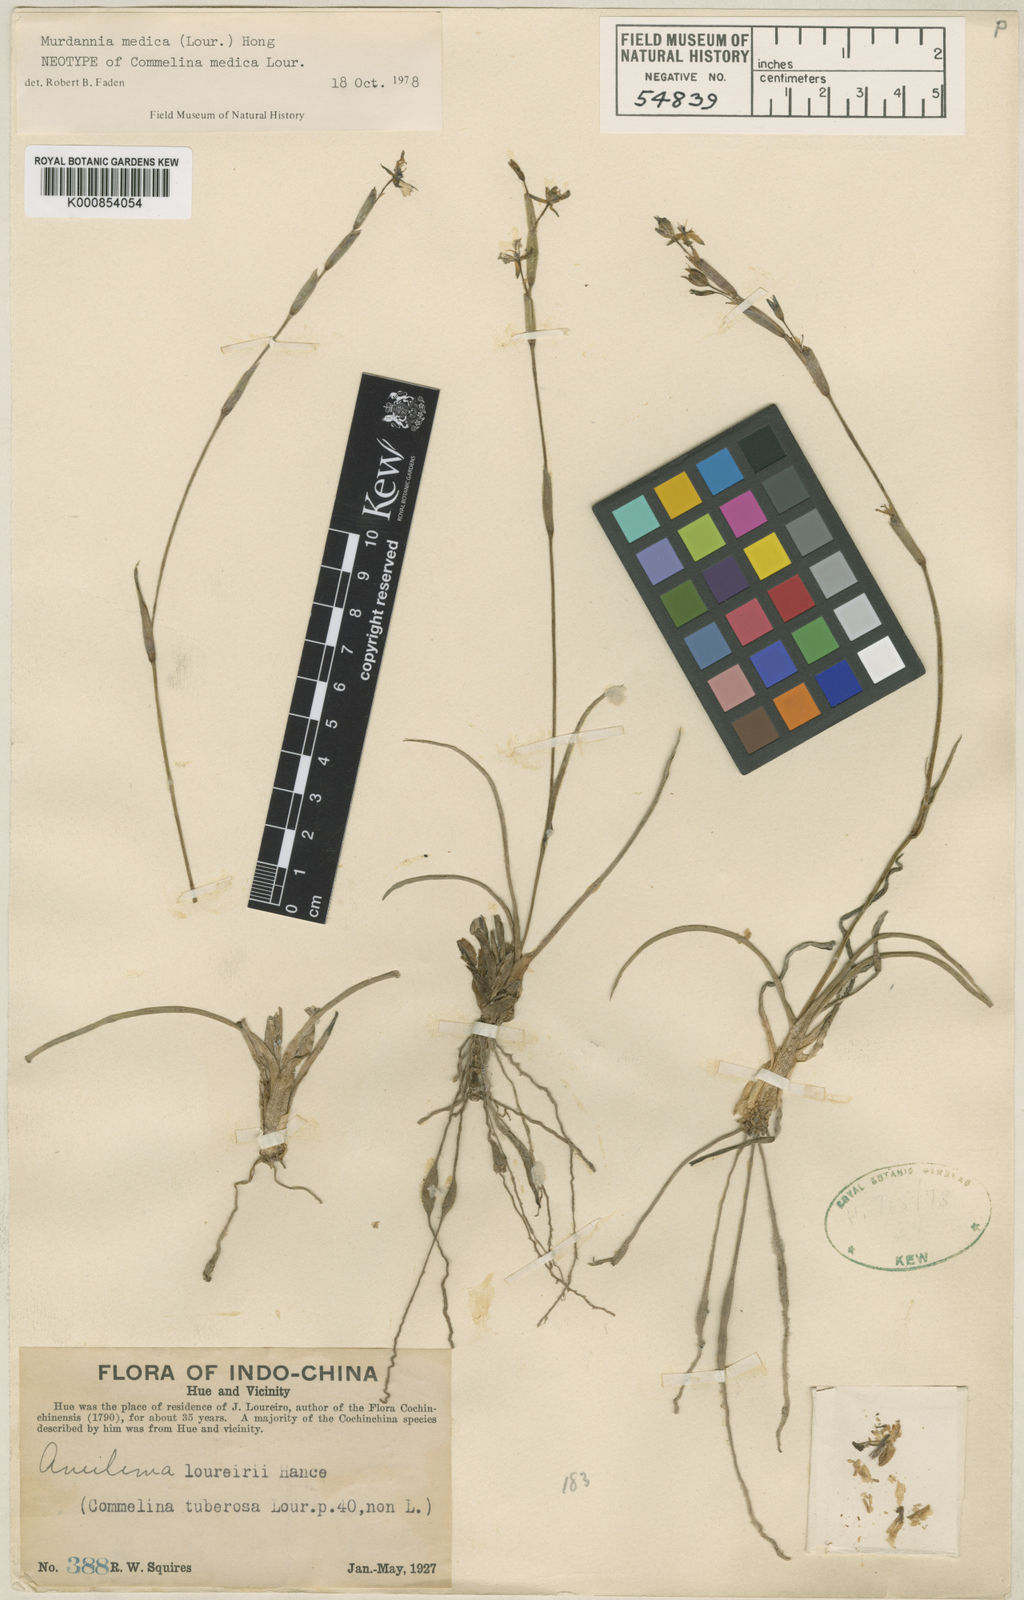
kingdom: Plantae
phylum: Tracheophyta
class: Liliopsida
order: Commelinales
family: Commelinaceae
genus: Murdannia
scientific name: Murdannia medica
